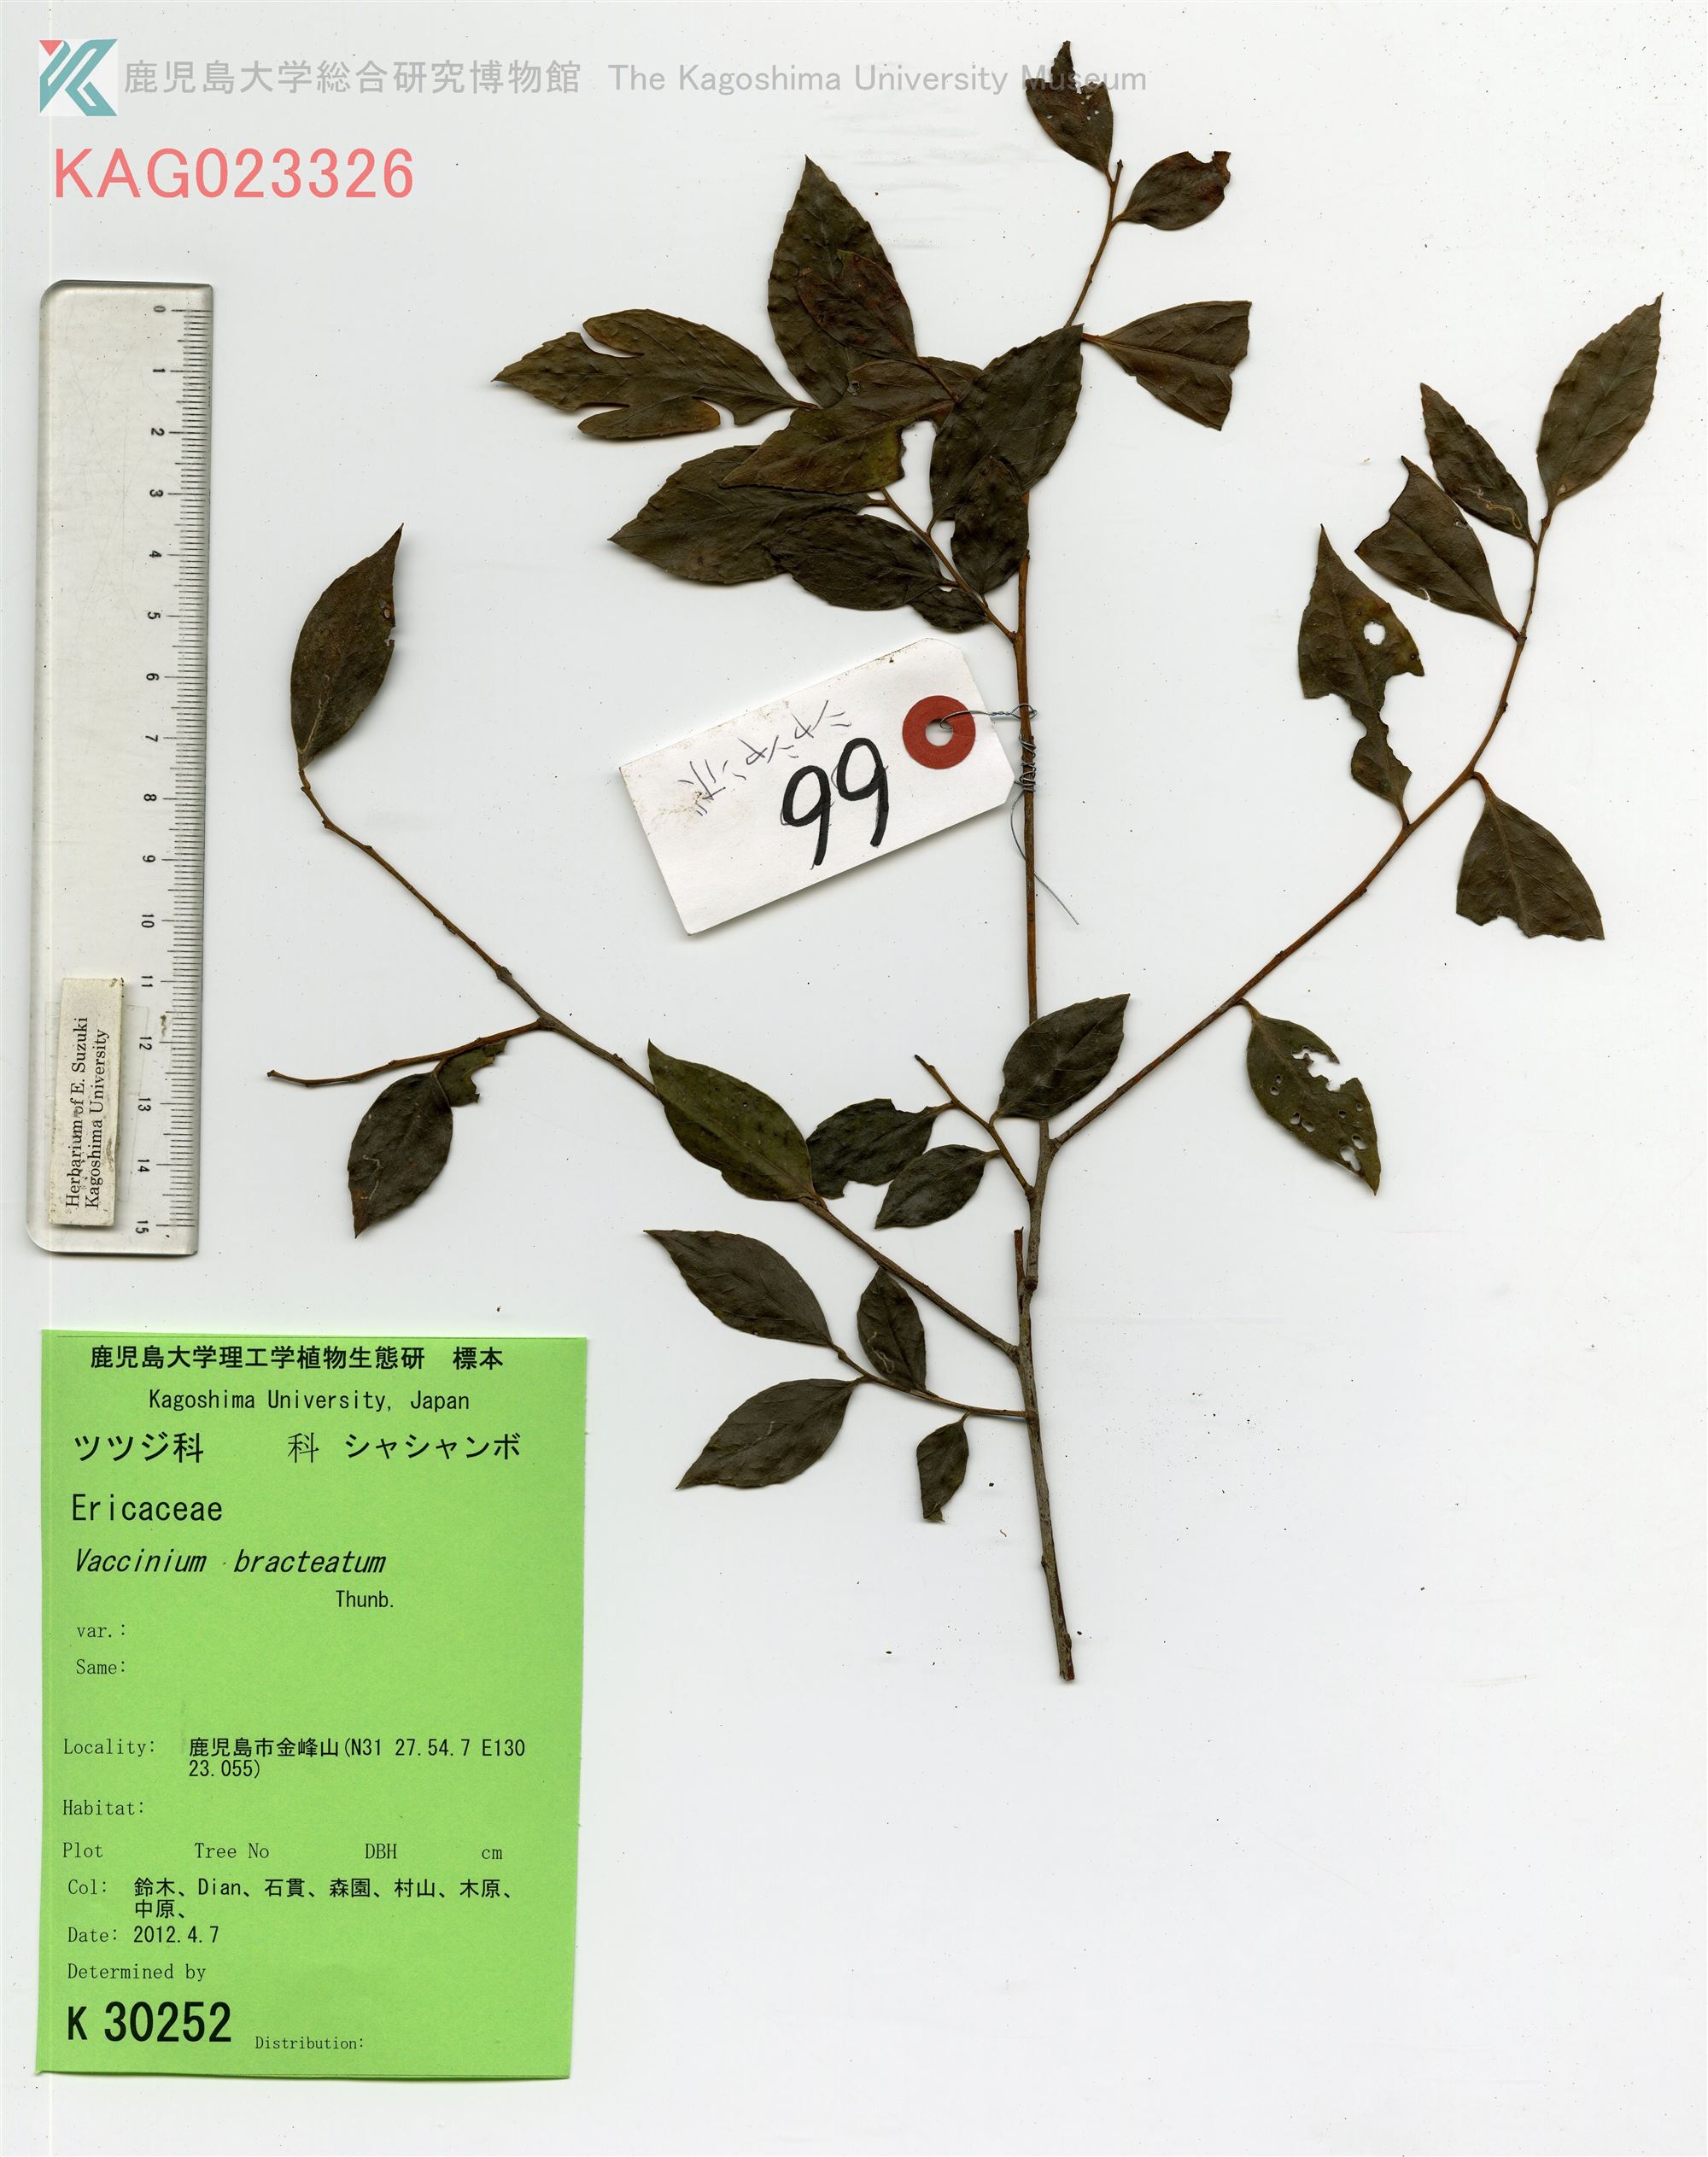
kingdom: Plantae
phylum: Tracheophyta
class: Magnoliopsida
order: Ericales
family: Ericaceae
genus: Vaccinium
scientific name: Vaccinium bracteatum
